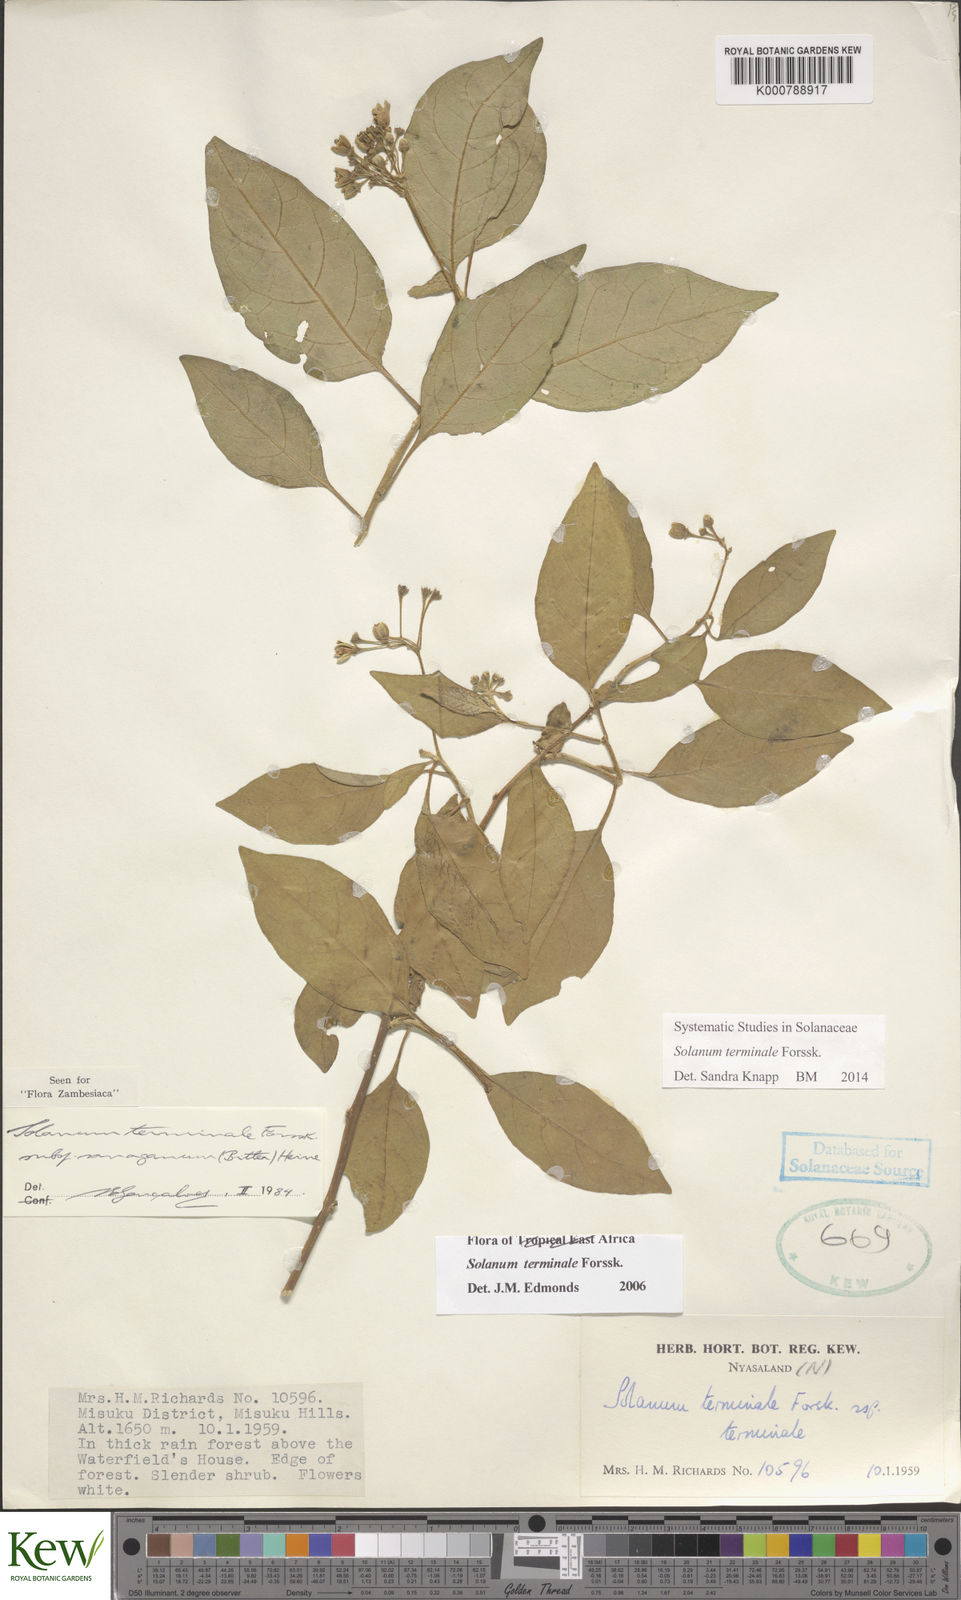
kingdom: Plantae
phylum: Tracheophyta
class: Magnoliopsida
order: Solanales
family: Solanaceae
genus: Solanum
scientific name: Solanum terminale
